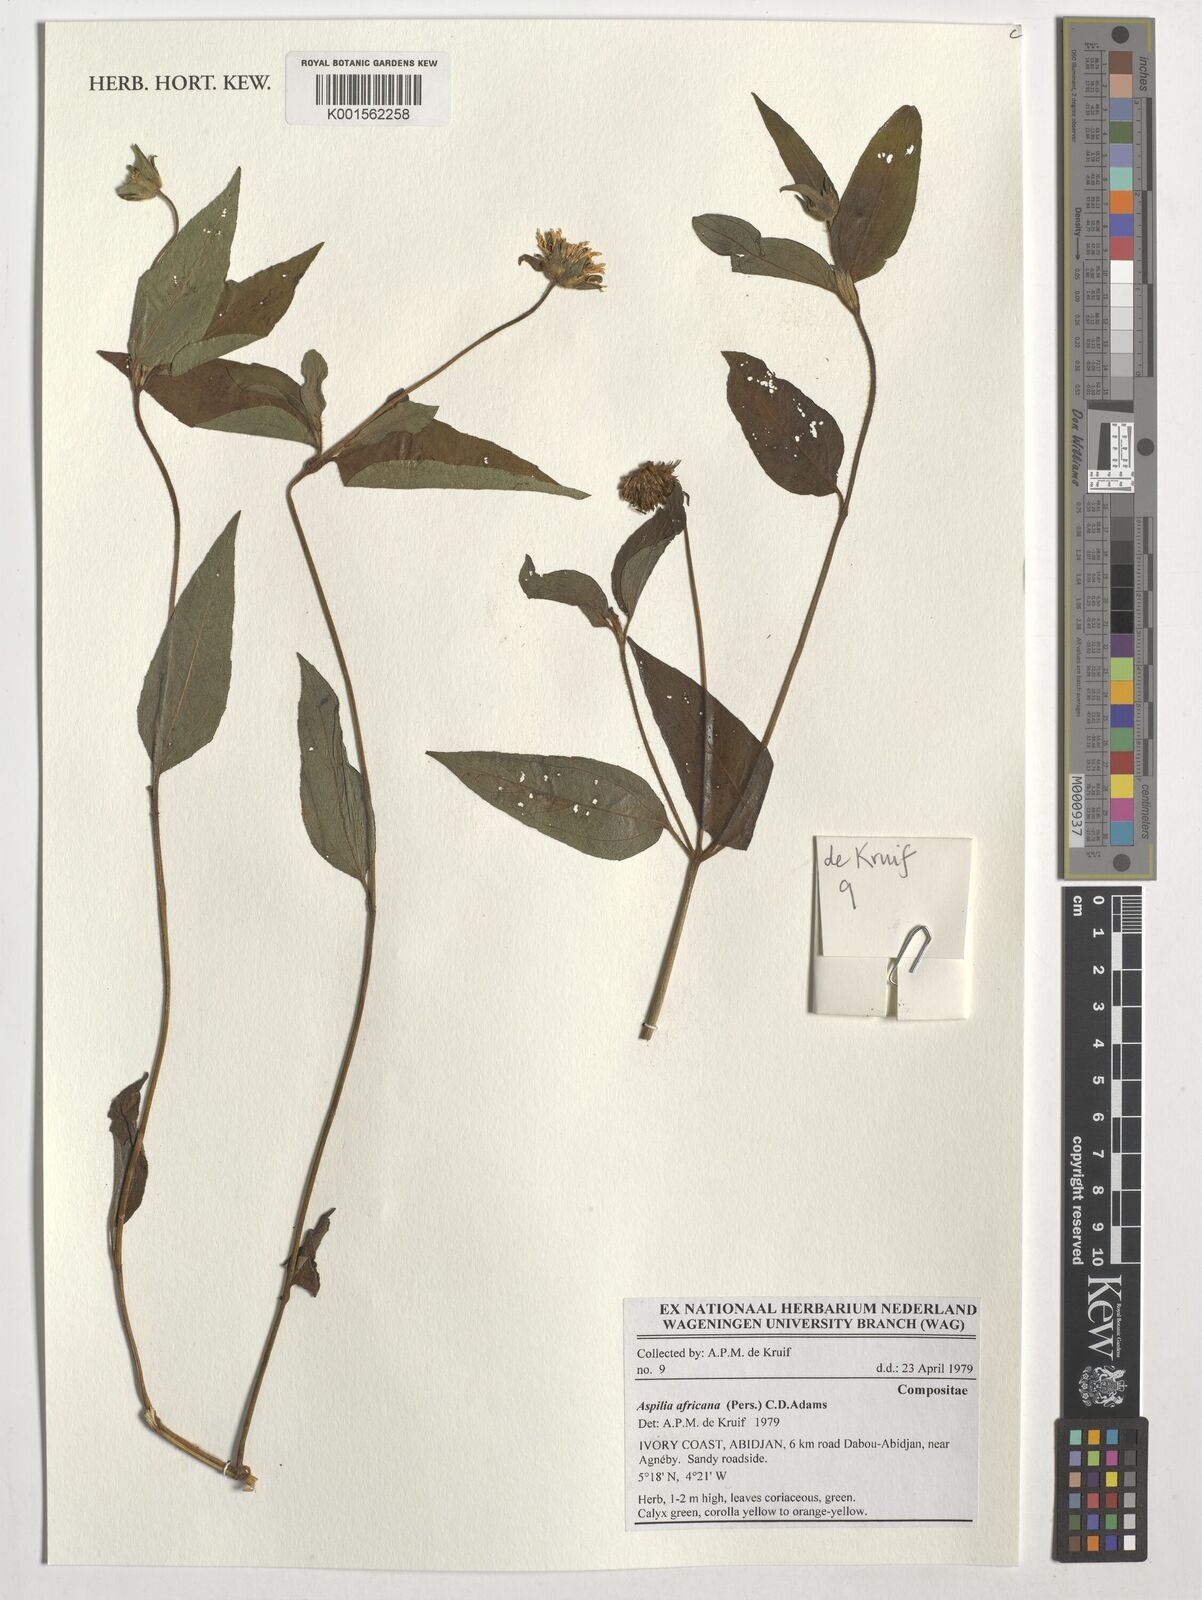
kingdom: Plantae
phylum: Tracheophyta
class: Magnoliopsida
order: Asterales
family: Asteraceae
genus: Aspilia
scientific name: Aspilia africana
